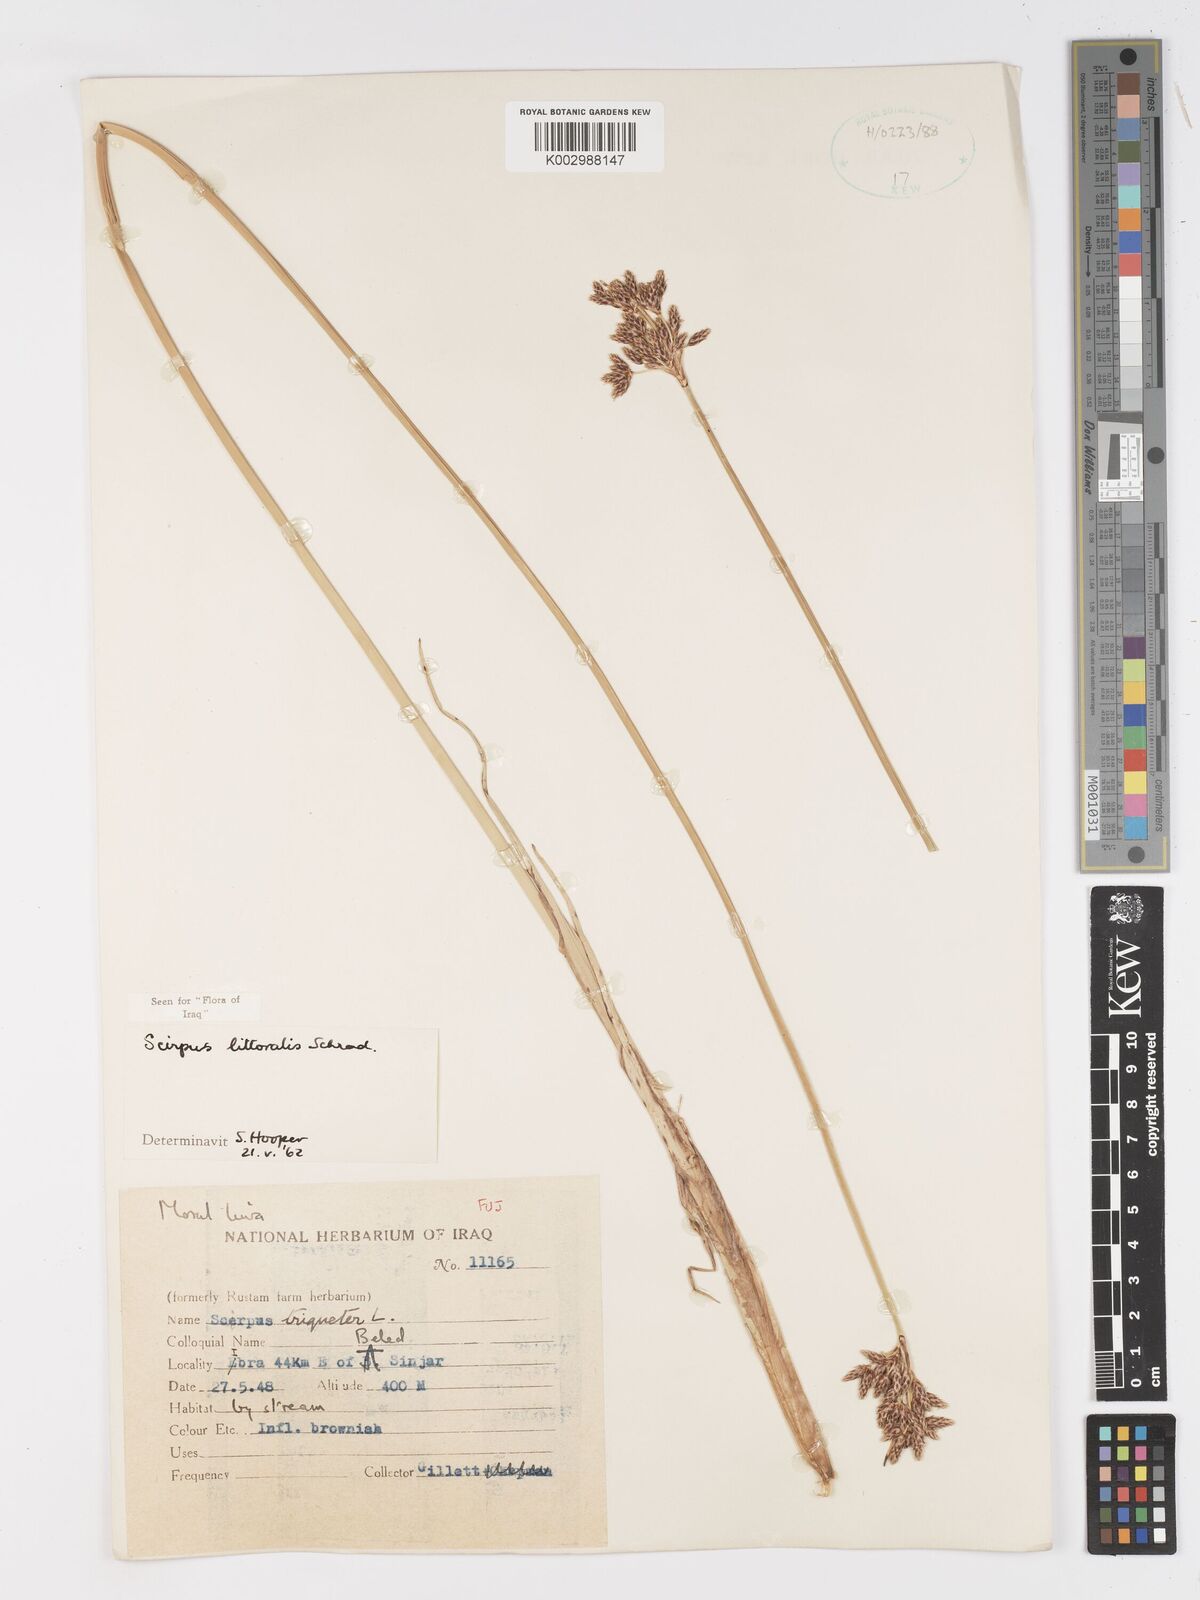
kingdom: Plantae
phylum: Tracheophyta
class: Liliopsida
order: Poales
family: Cyperaceae
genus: Schoenoplectus
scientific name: Schoenoplectus litoralis
